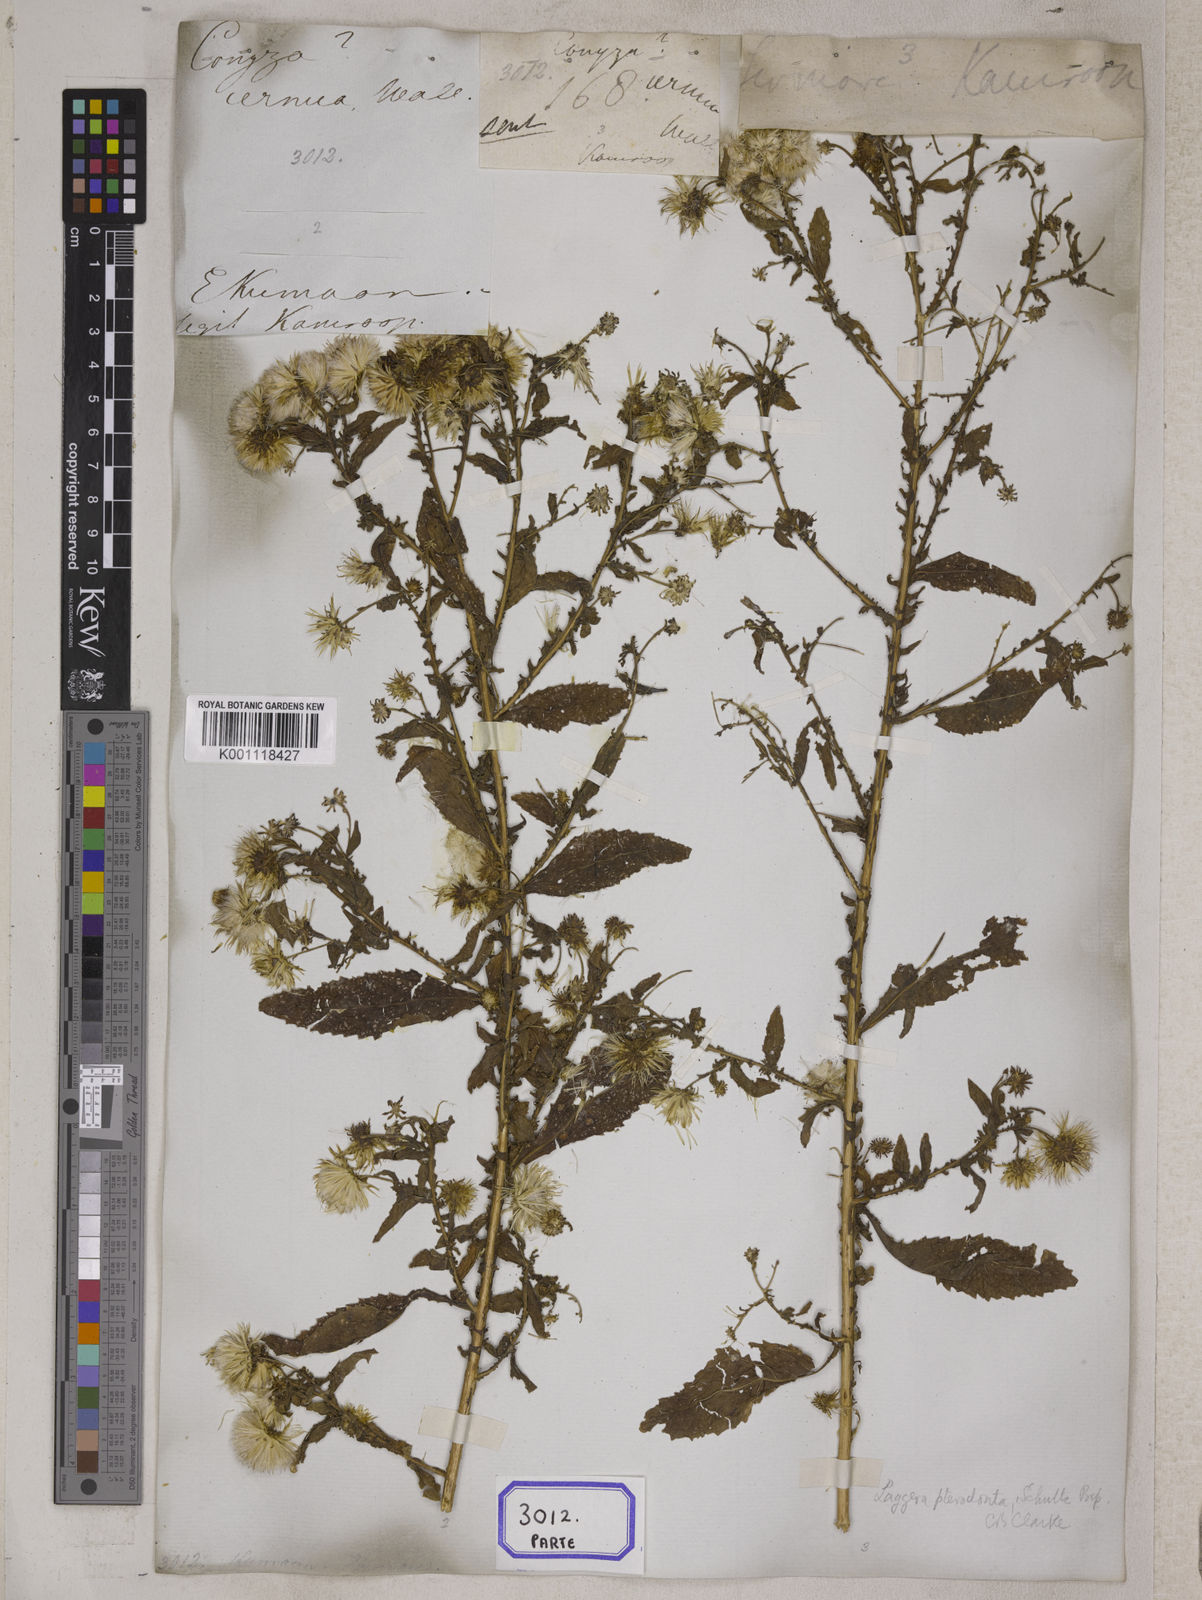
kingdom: Plantae
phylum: Tracheophyta
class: Magnoliopsida
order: Asterales
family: Asteraceae
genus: Erigeron
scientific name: Erigeron Conyza cernua
